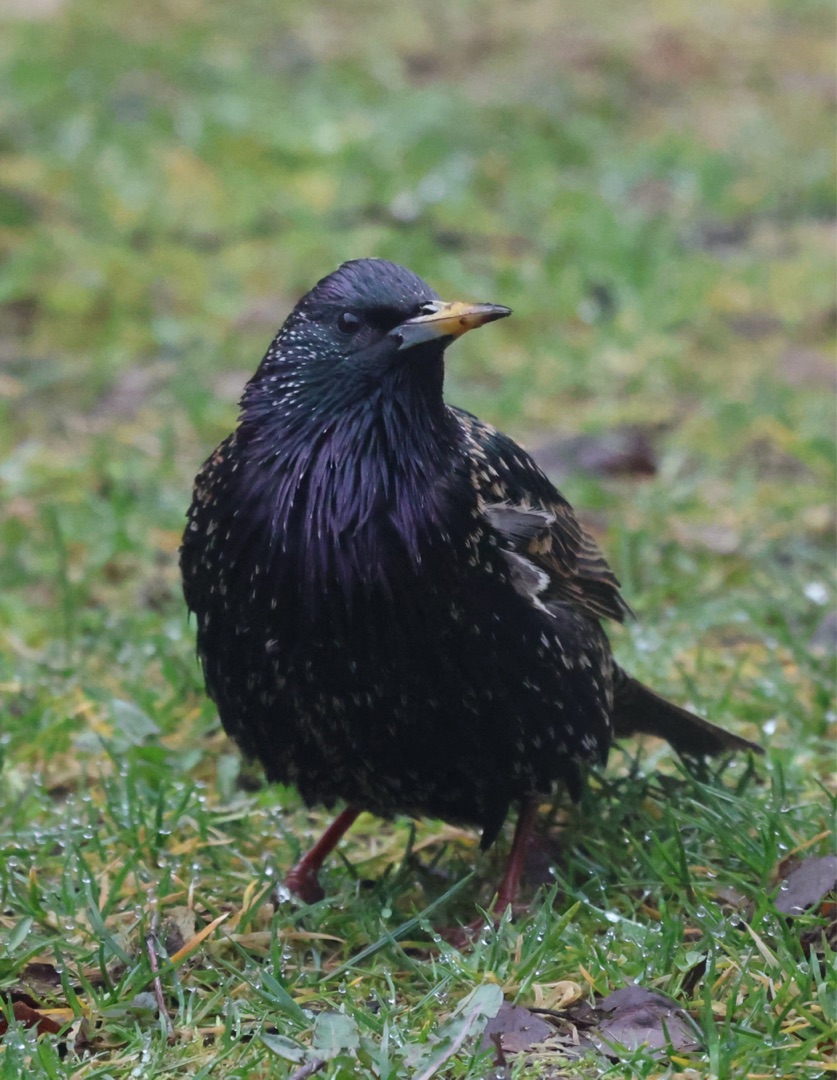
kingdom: Animalia
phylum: Chordata
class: Aves
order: Passeriformes
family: Sturnidae
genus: Sturnus
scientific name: Sturnus vulgaris
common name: Stær
